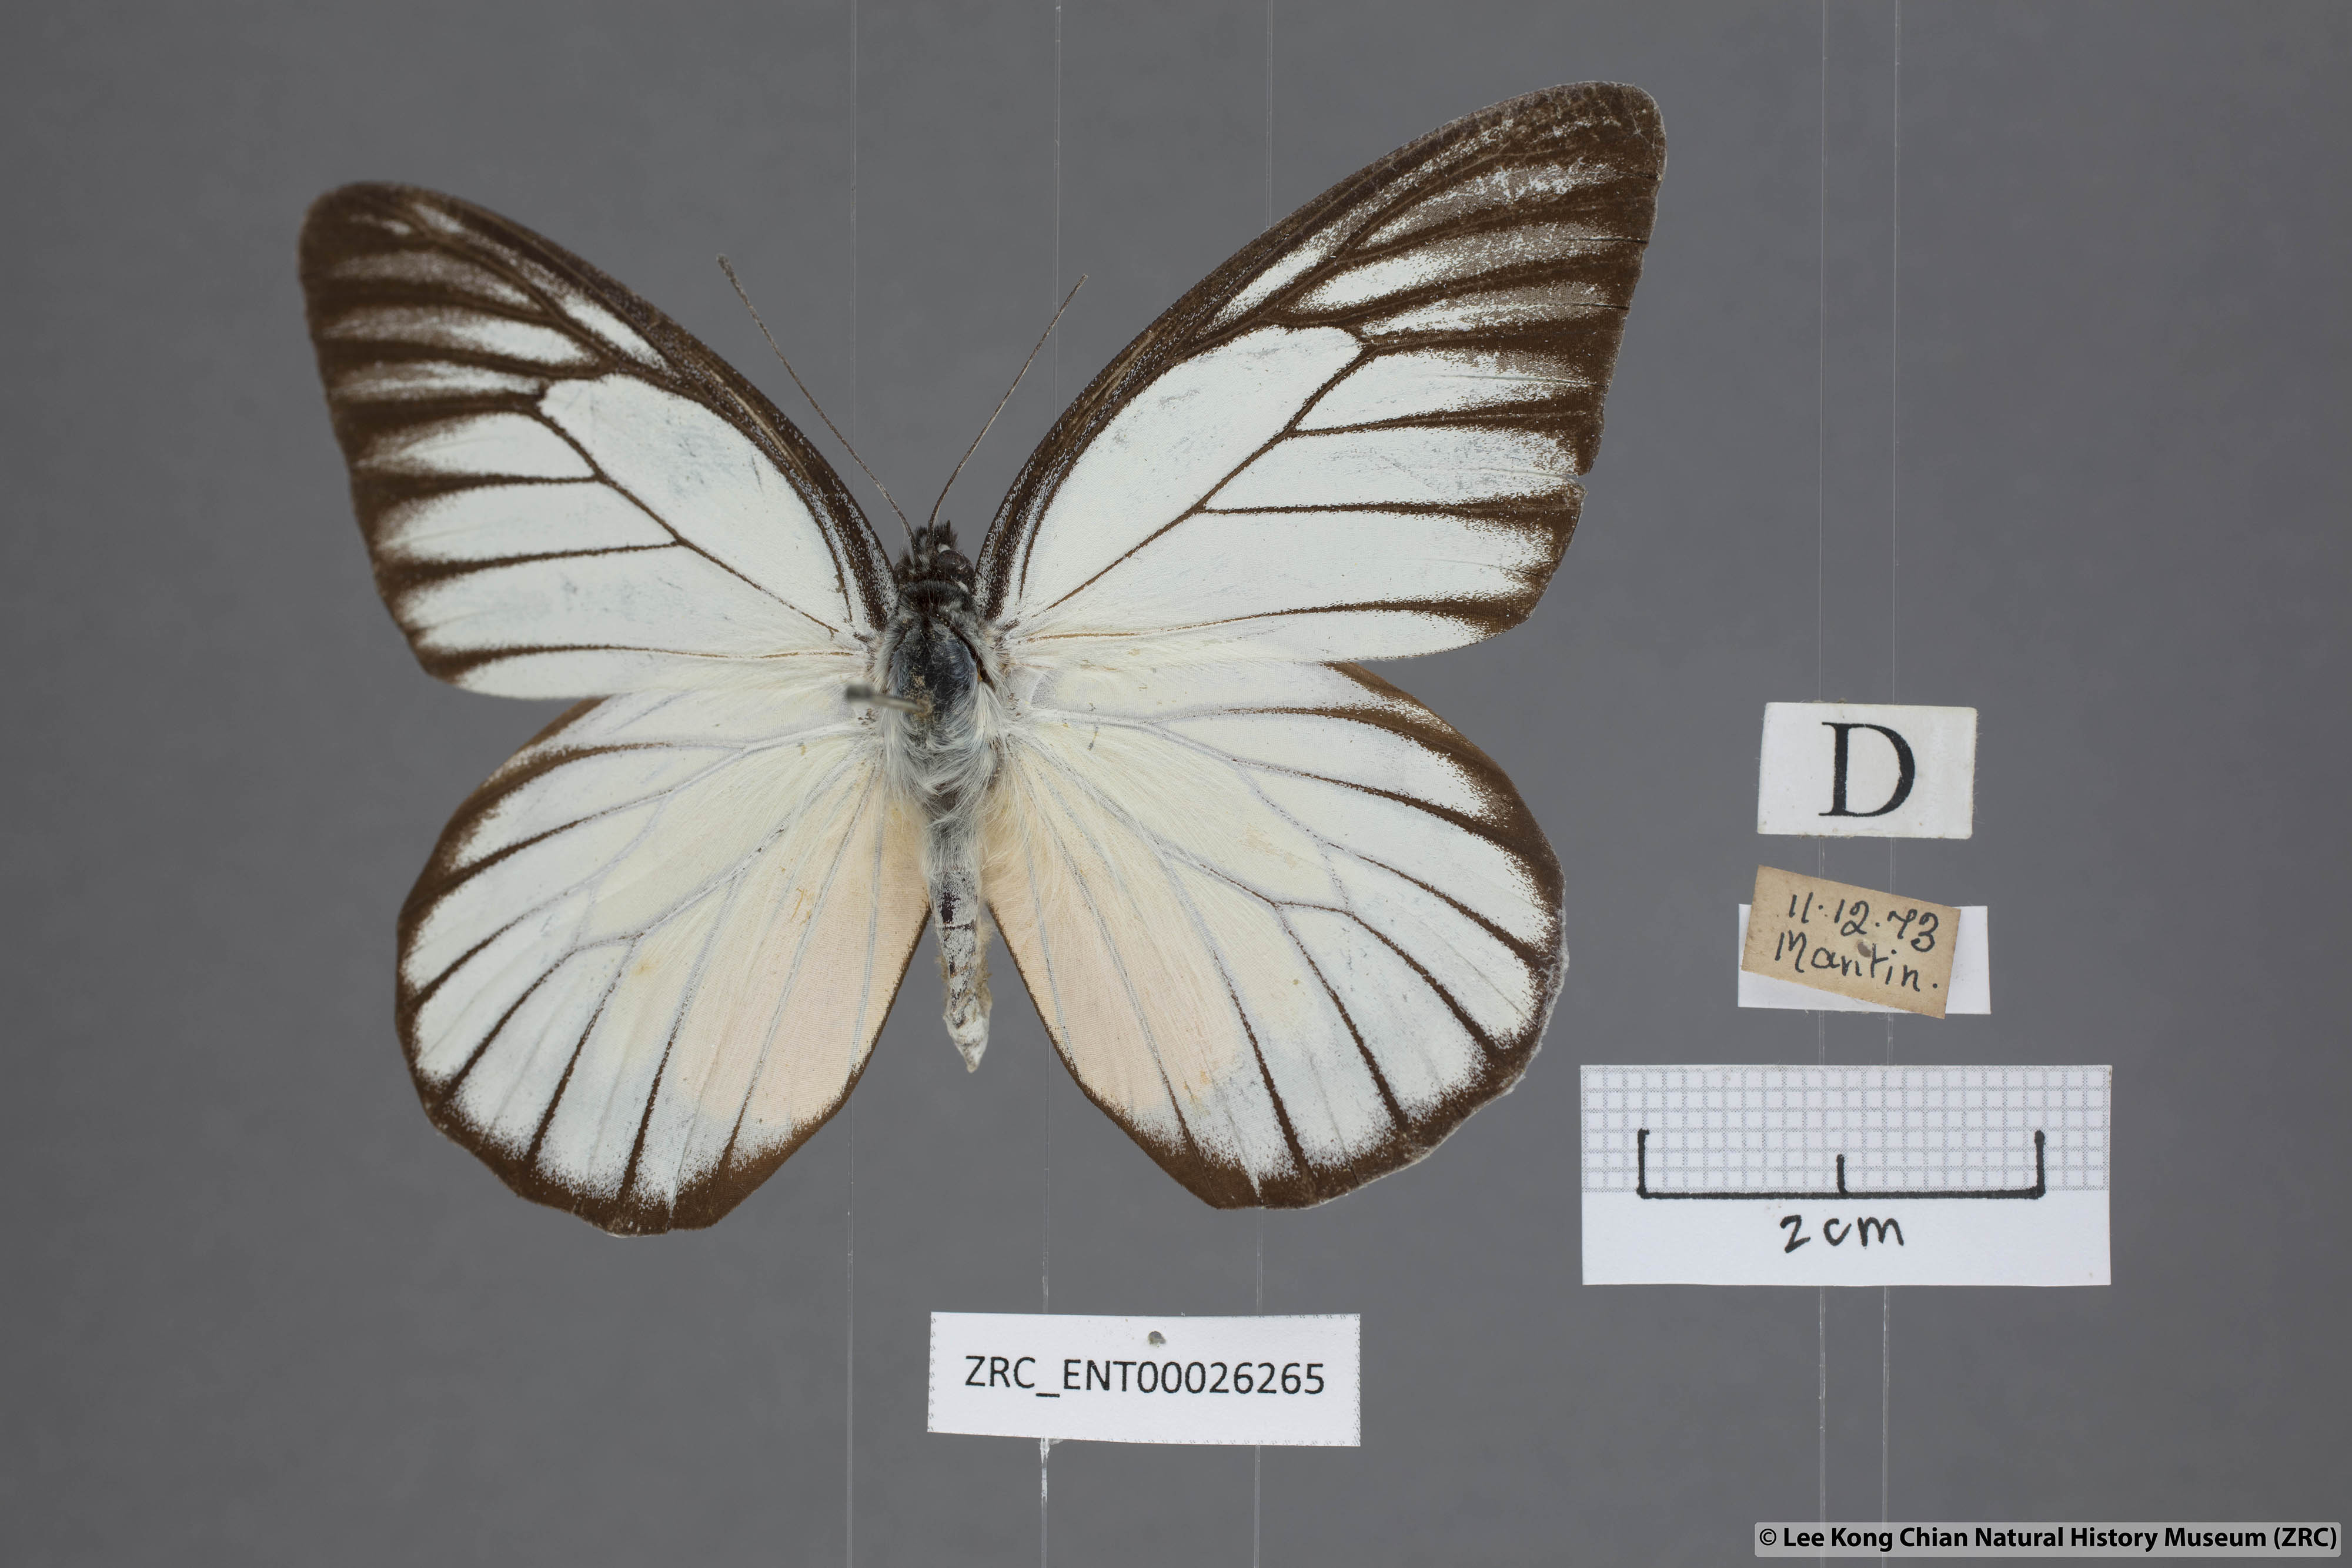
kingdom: Animalia
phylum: Arthropoda
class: Insecta
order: Lepidoptera
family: Pieridae
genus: Prioneris
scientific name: Prioneris philonome
